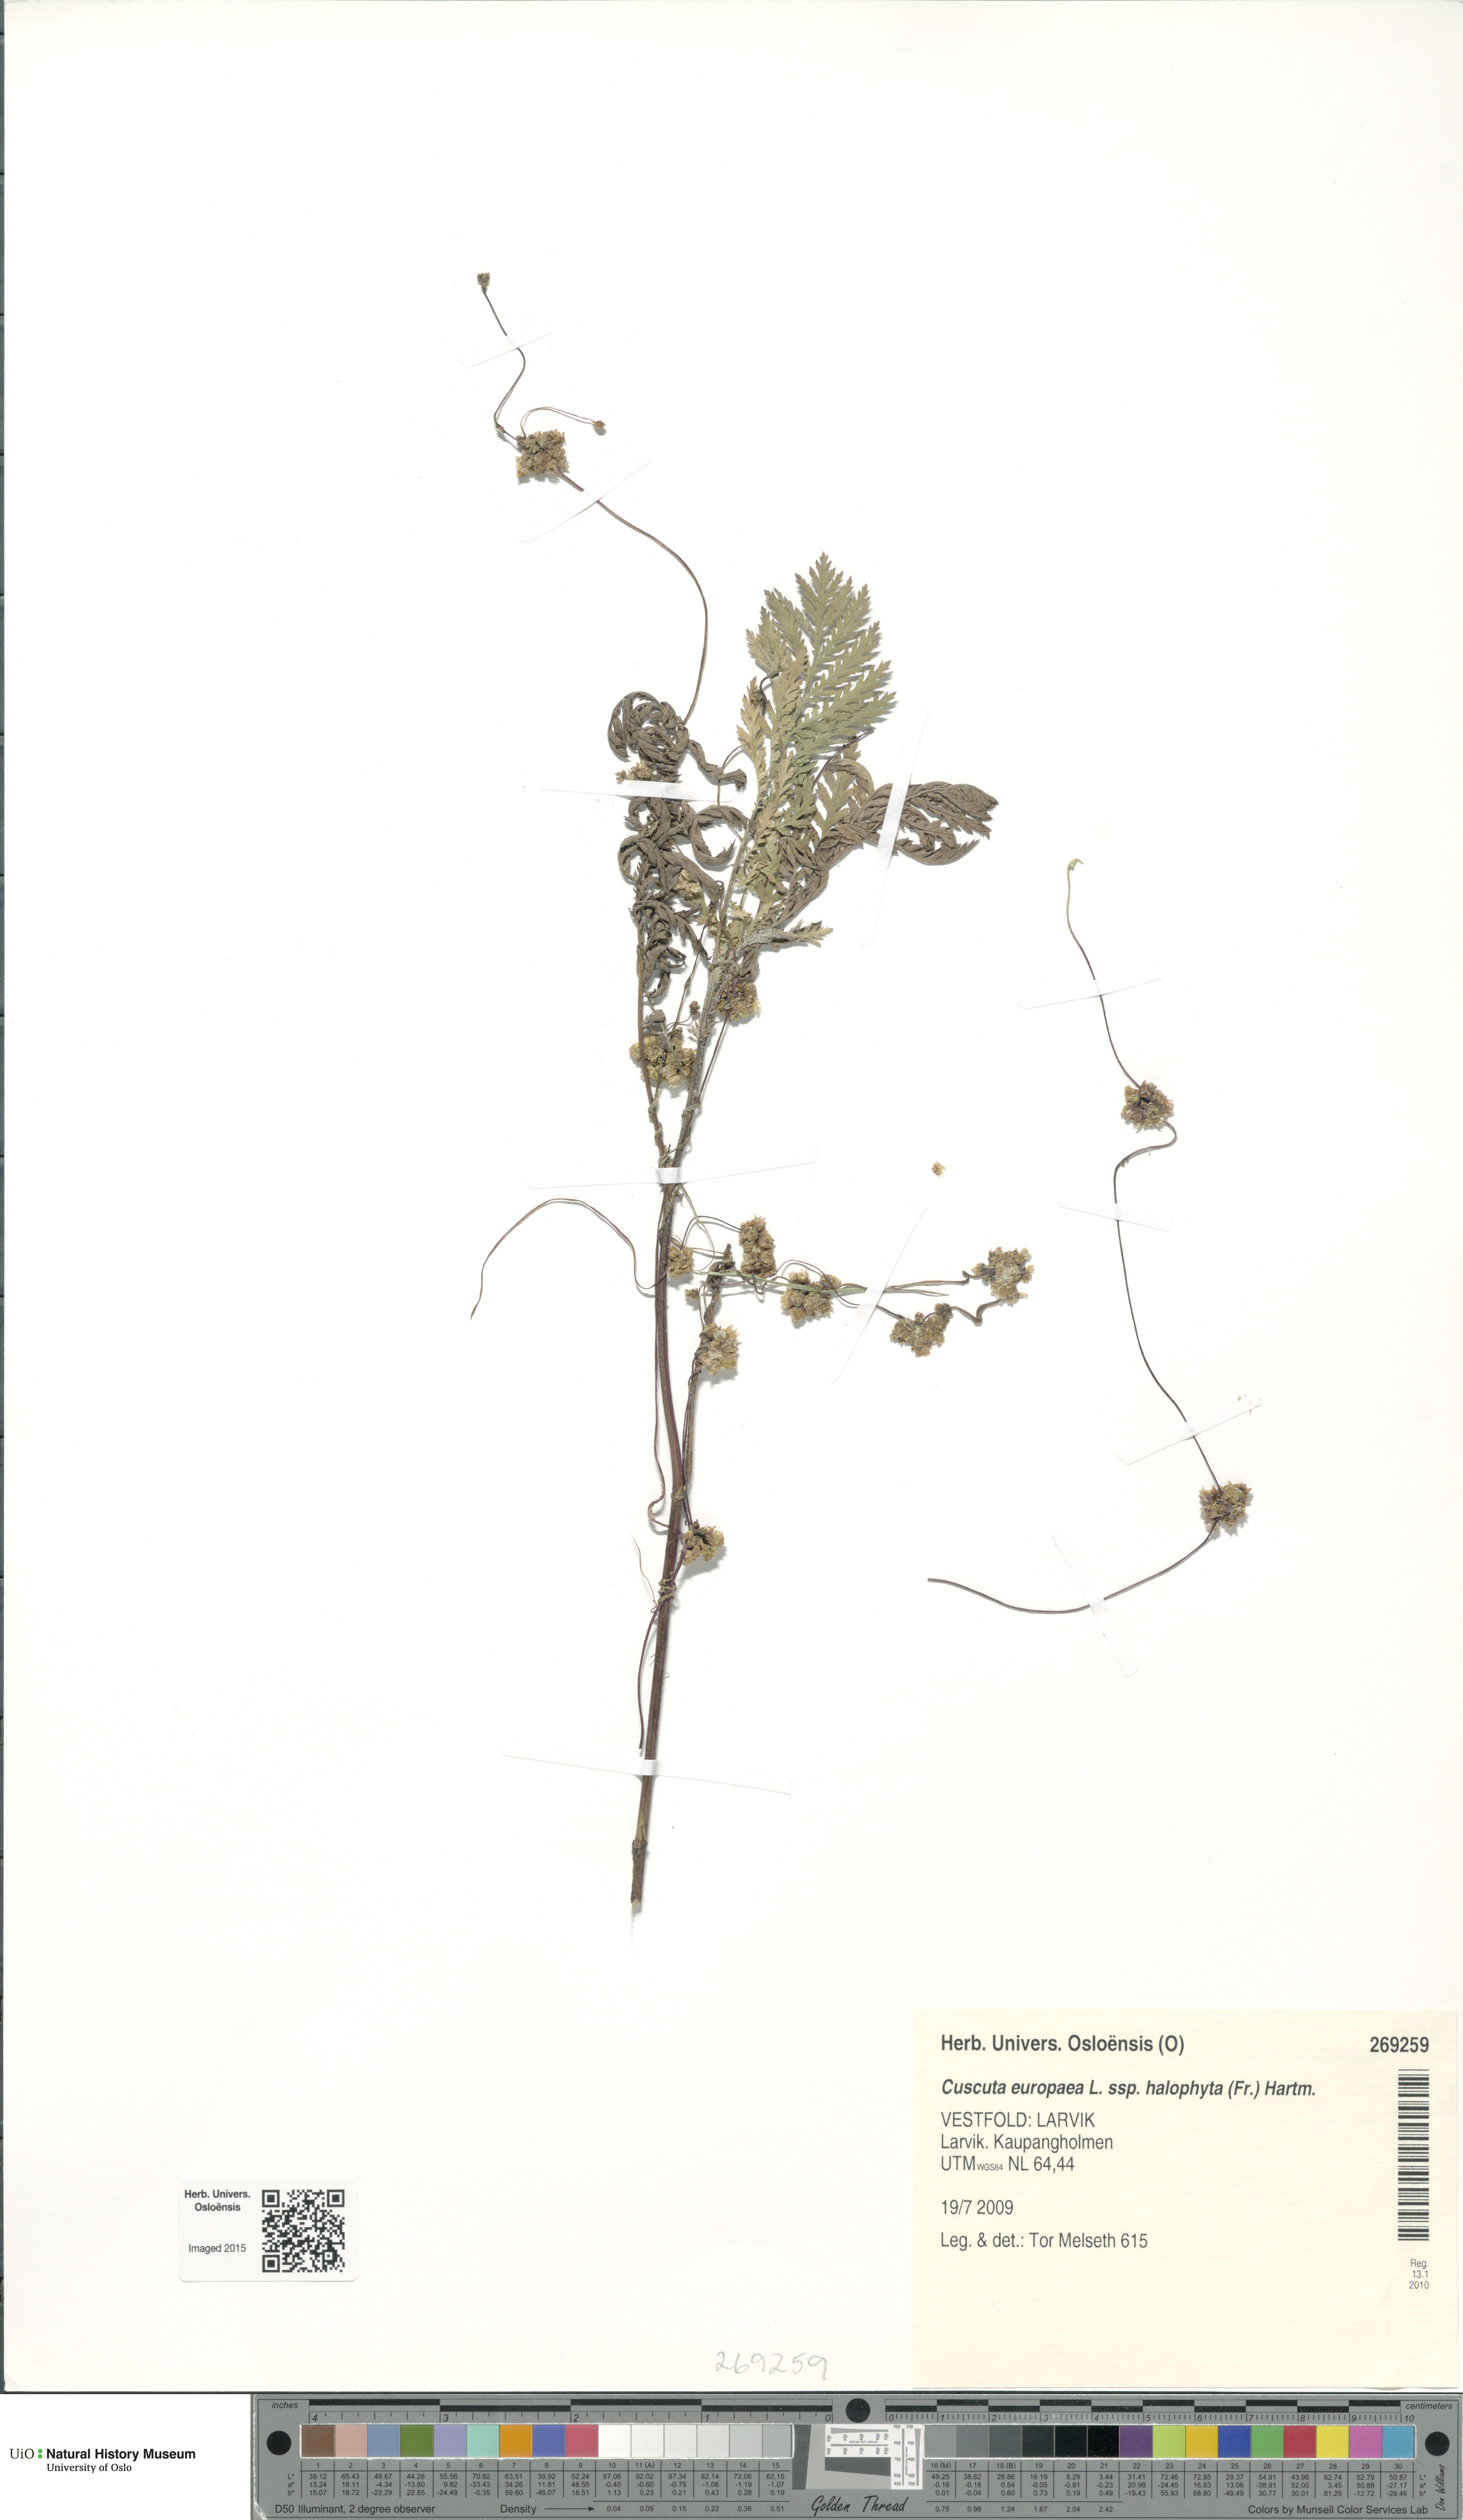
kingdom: Plantae
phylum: Tracheophyta
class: Magnoliopsida
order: Solanales
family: Convolvulaceae
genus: Cuscuta
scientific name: Cuscuta europaea
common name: Greater dodder
